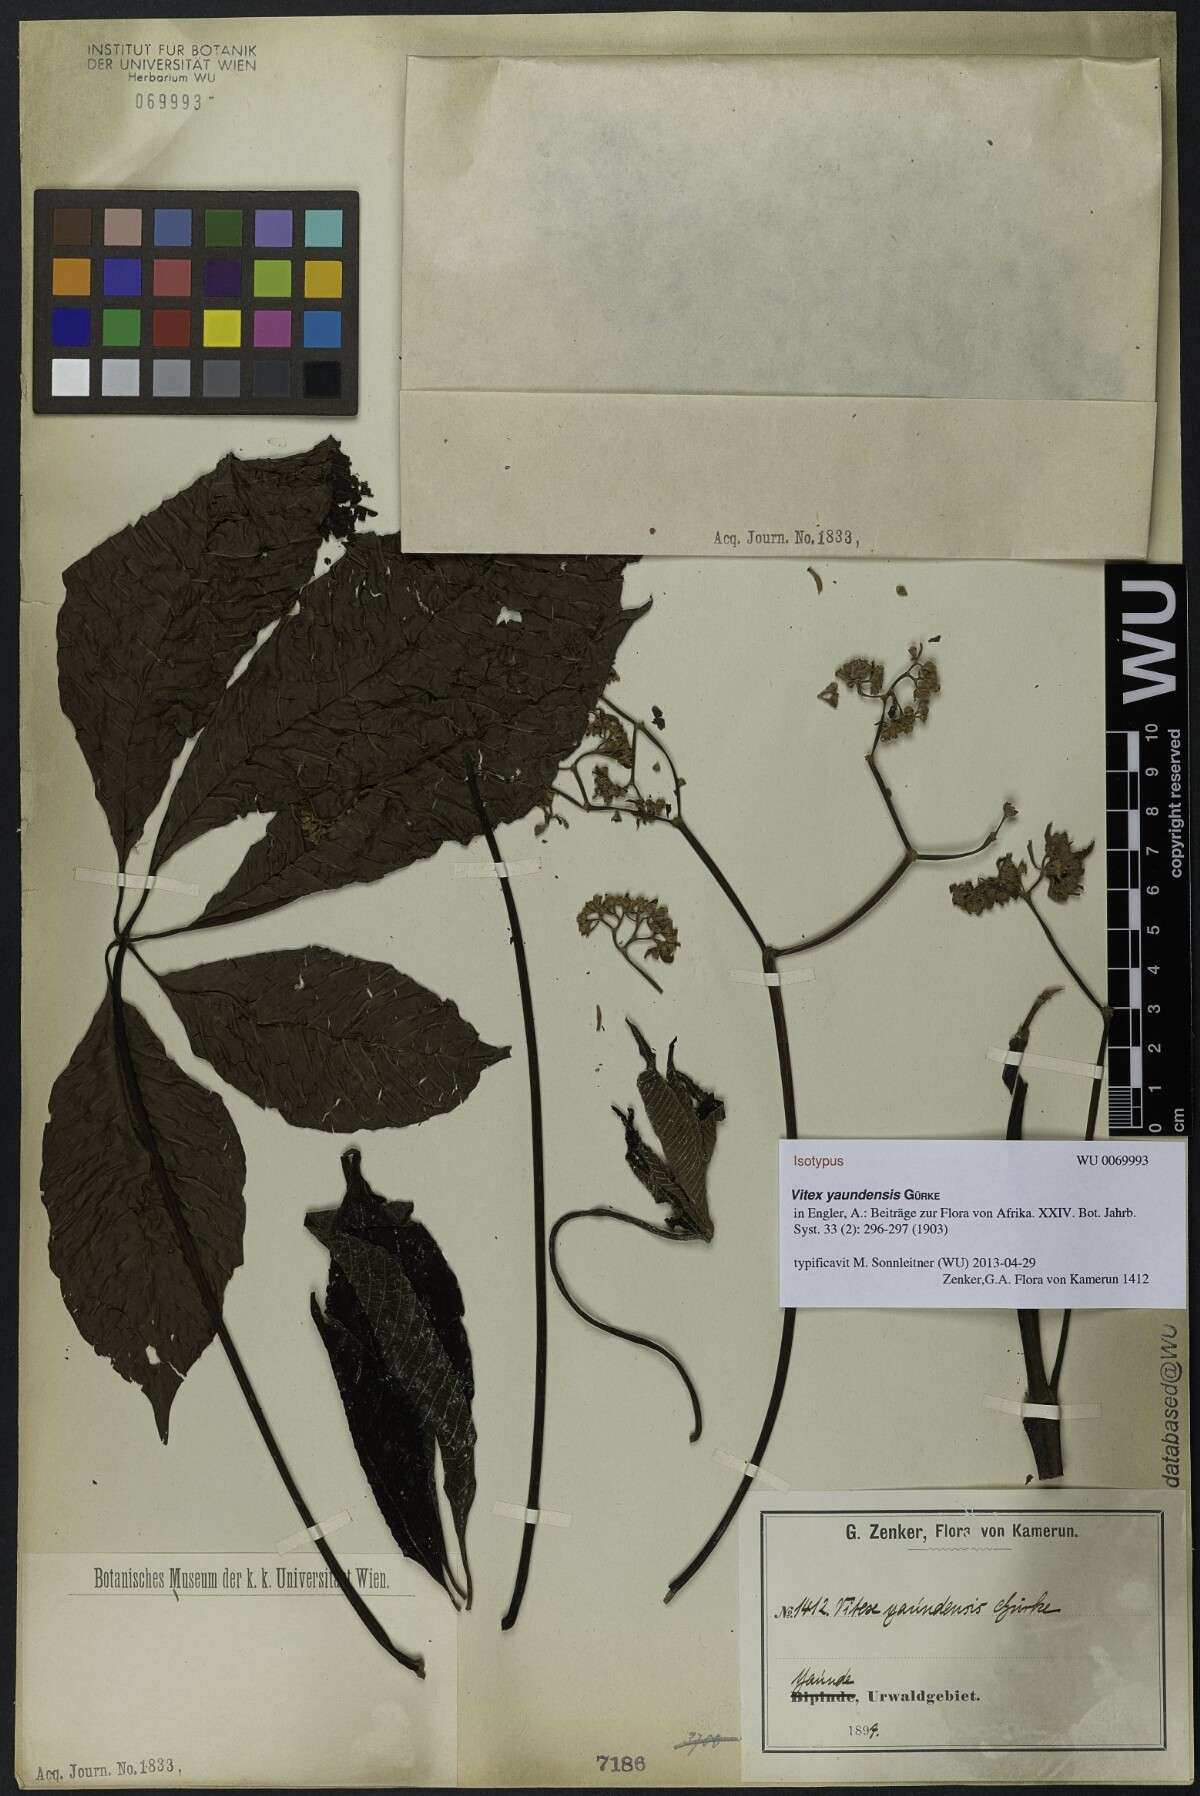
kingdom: Plantae
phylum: Tracheophyta
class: Magnoliopsida
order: Lamiales
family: Lamiaceae
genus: Vitex
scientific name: Vitex yaundensis
